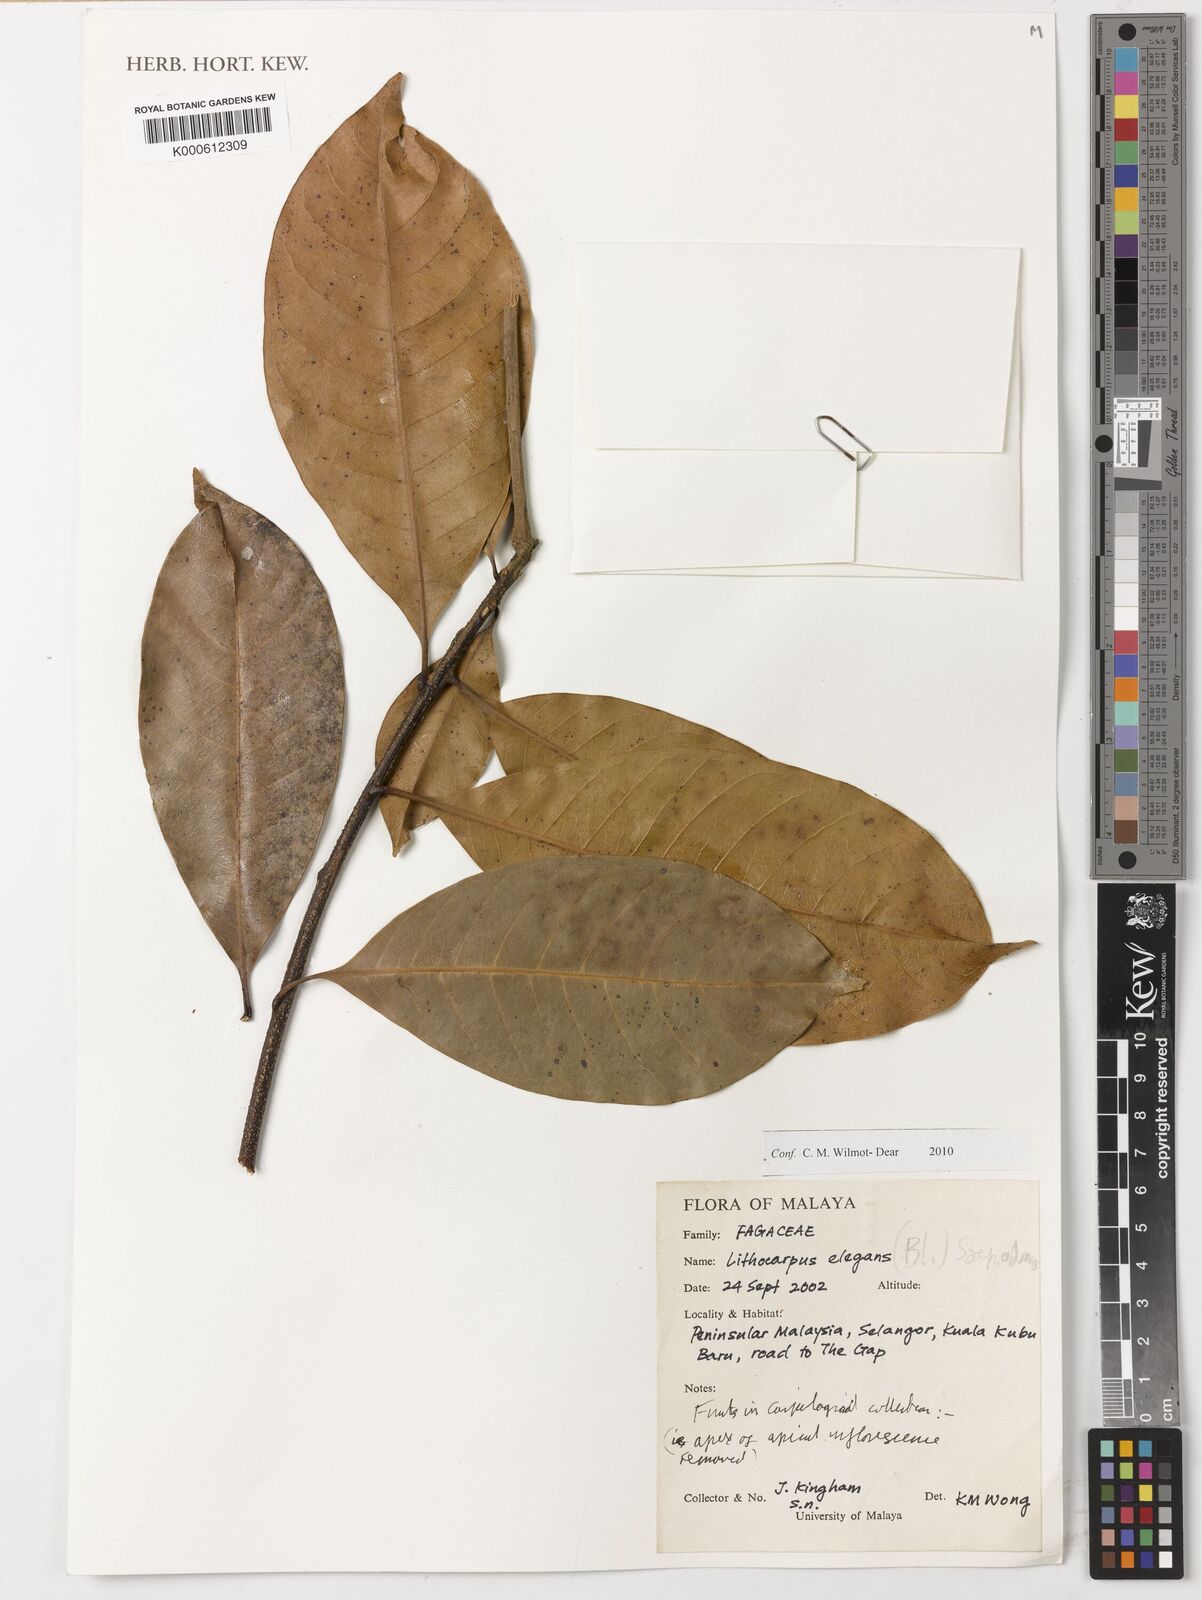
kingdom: Plantae
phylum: Tracheophyta
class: Magnoliopsida
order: Fagales
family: Fagaceae
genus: Lithocarpus
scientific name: Lithocarpus elegans
